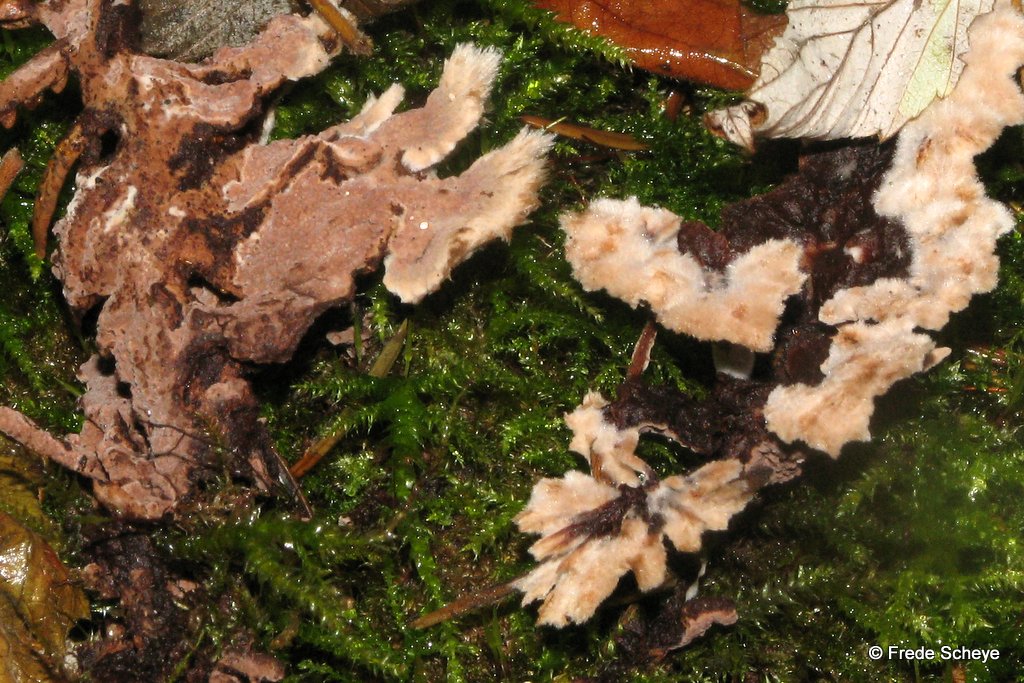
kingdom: Fungi
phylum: Basidiomycota
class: Agaricomycetes
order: Thelephorales
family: Thelephoraceae
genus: Thelephora
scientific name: Thelephora terrestris
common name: fliget frynsesvamp
